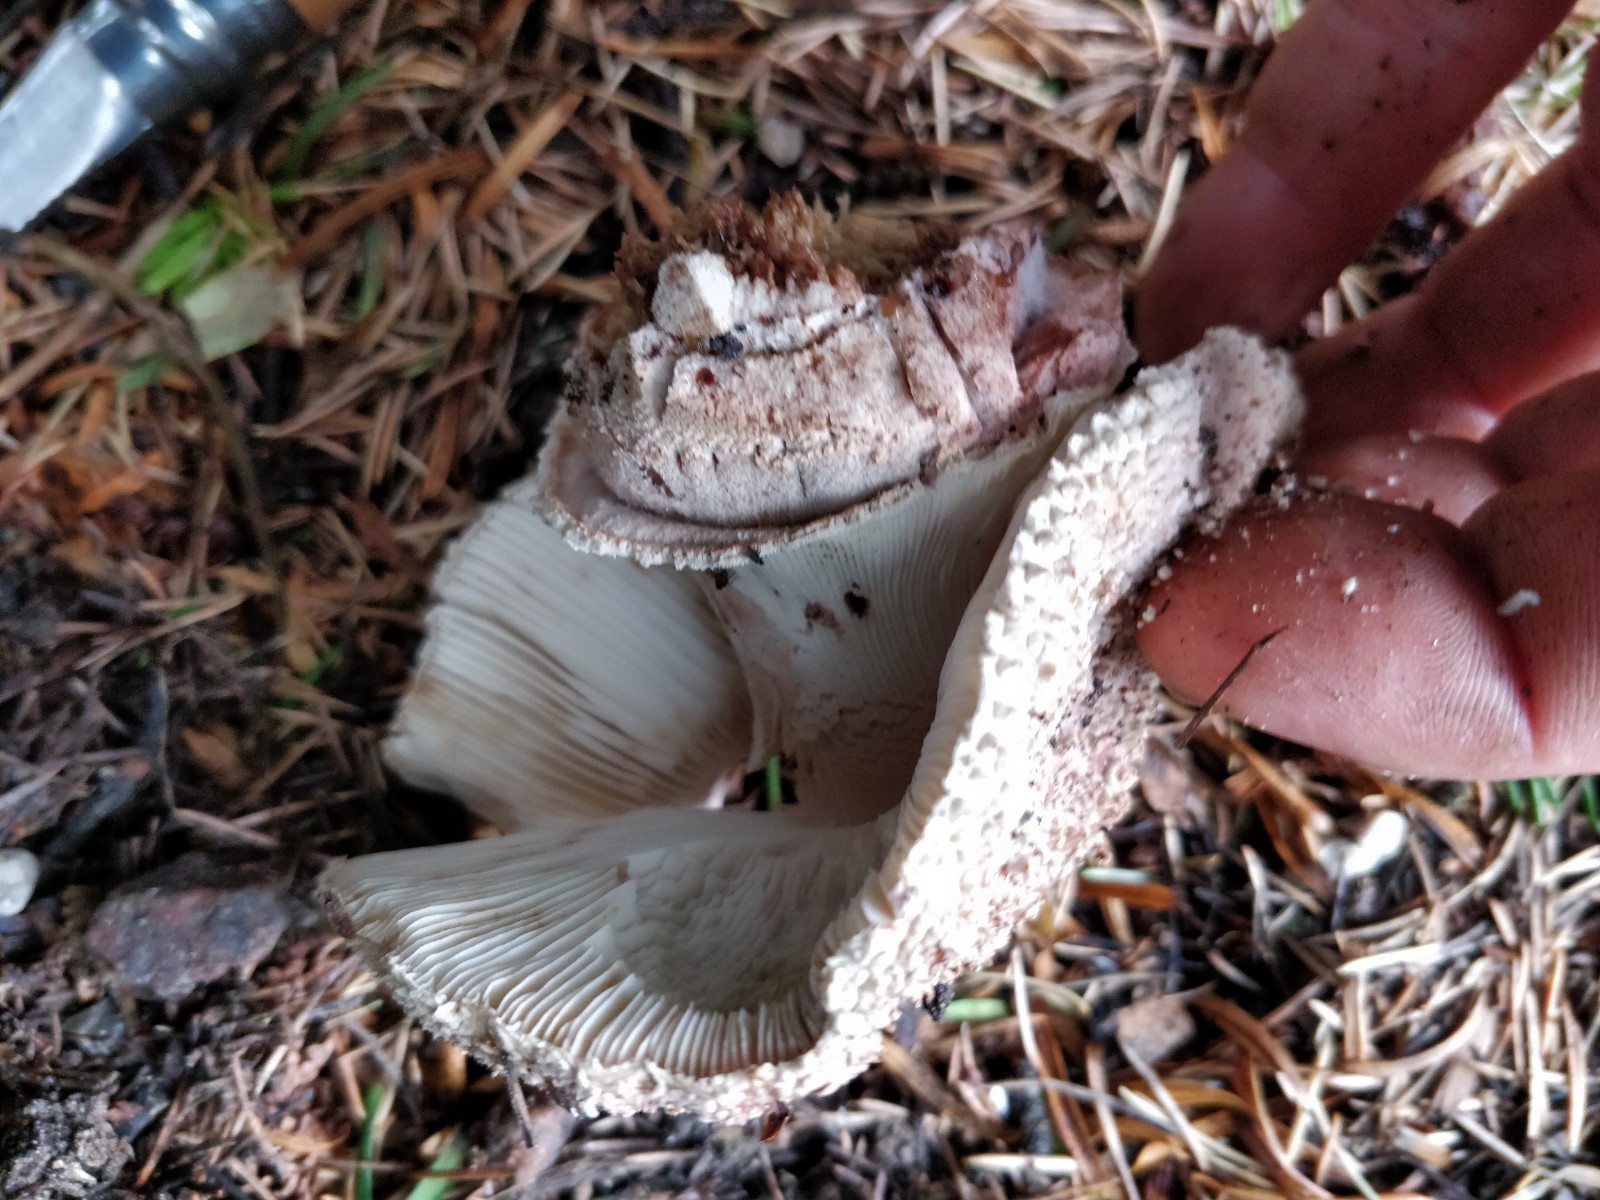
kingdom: Fungi
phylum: Basidiomycota
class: Agaricomycetes
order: Agaricales
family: Amanitaceae
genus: Amanita
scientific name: Amanita rubescens
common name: rødmende fluesvamp
